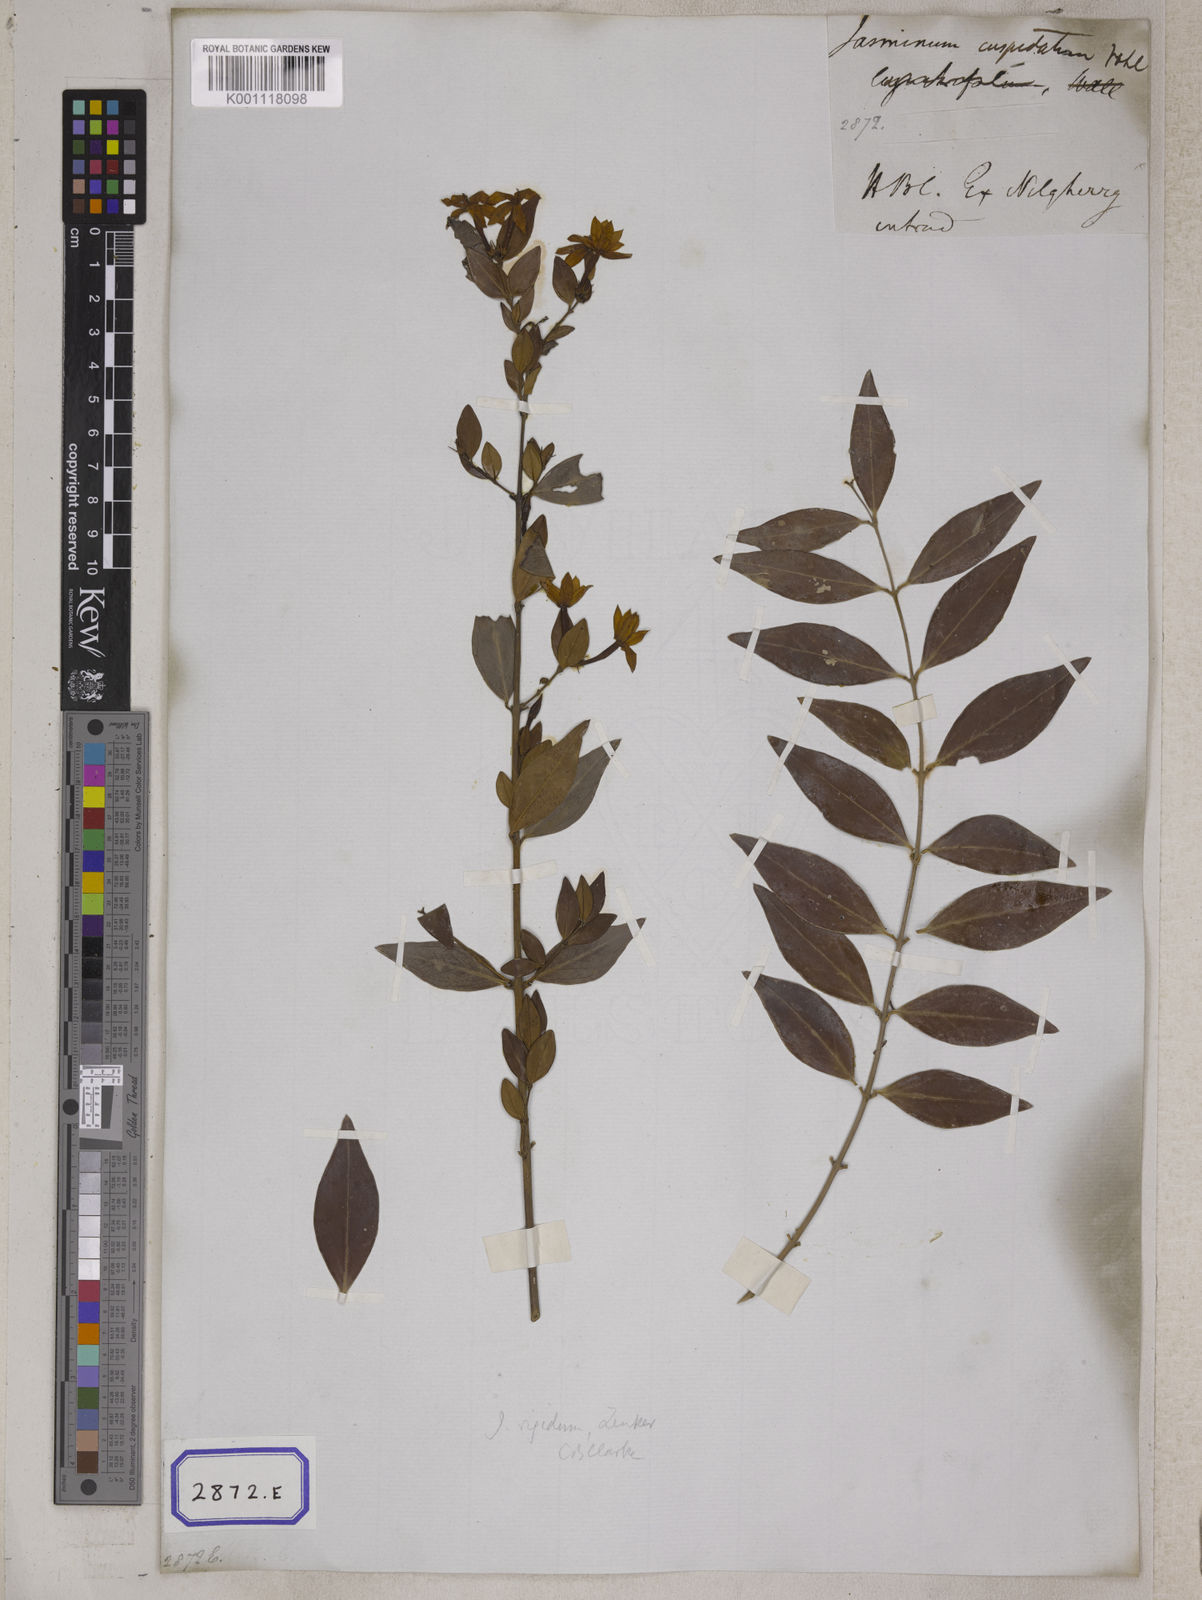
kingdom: Plantae
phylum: Tracheophyta
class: Magnoliopsida
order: Lamiales
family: Oleaceae
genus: Jasminum
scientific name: Jasminum
